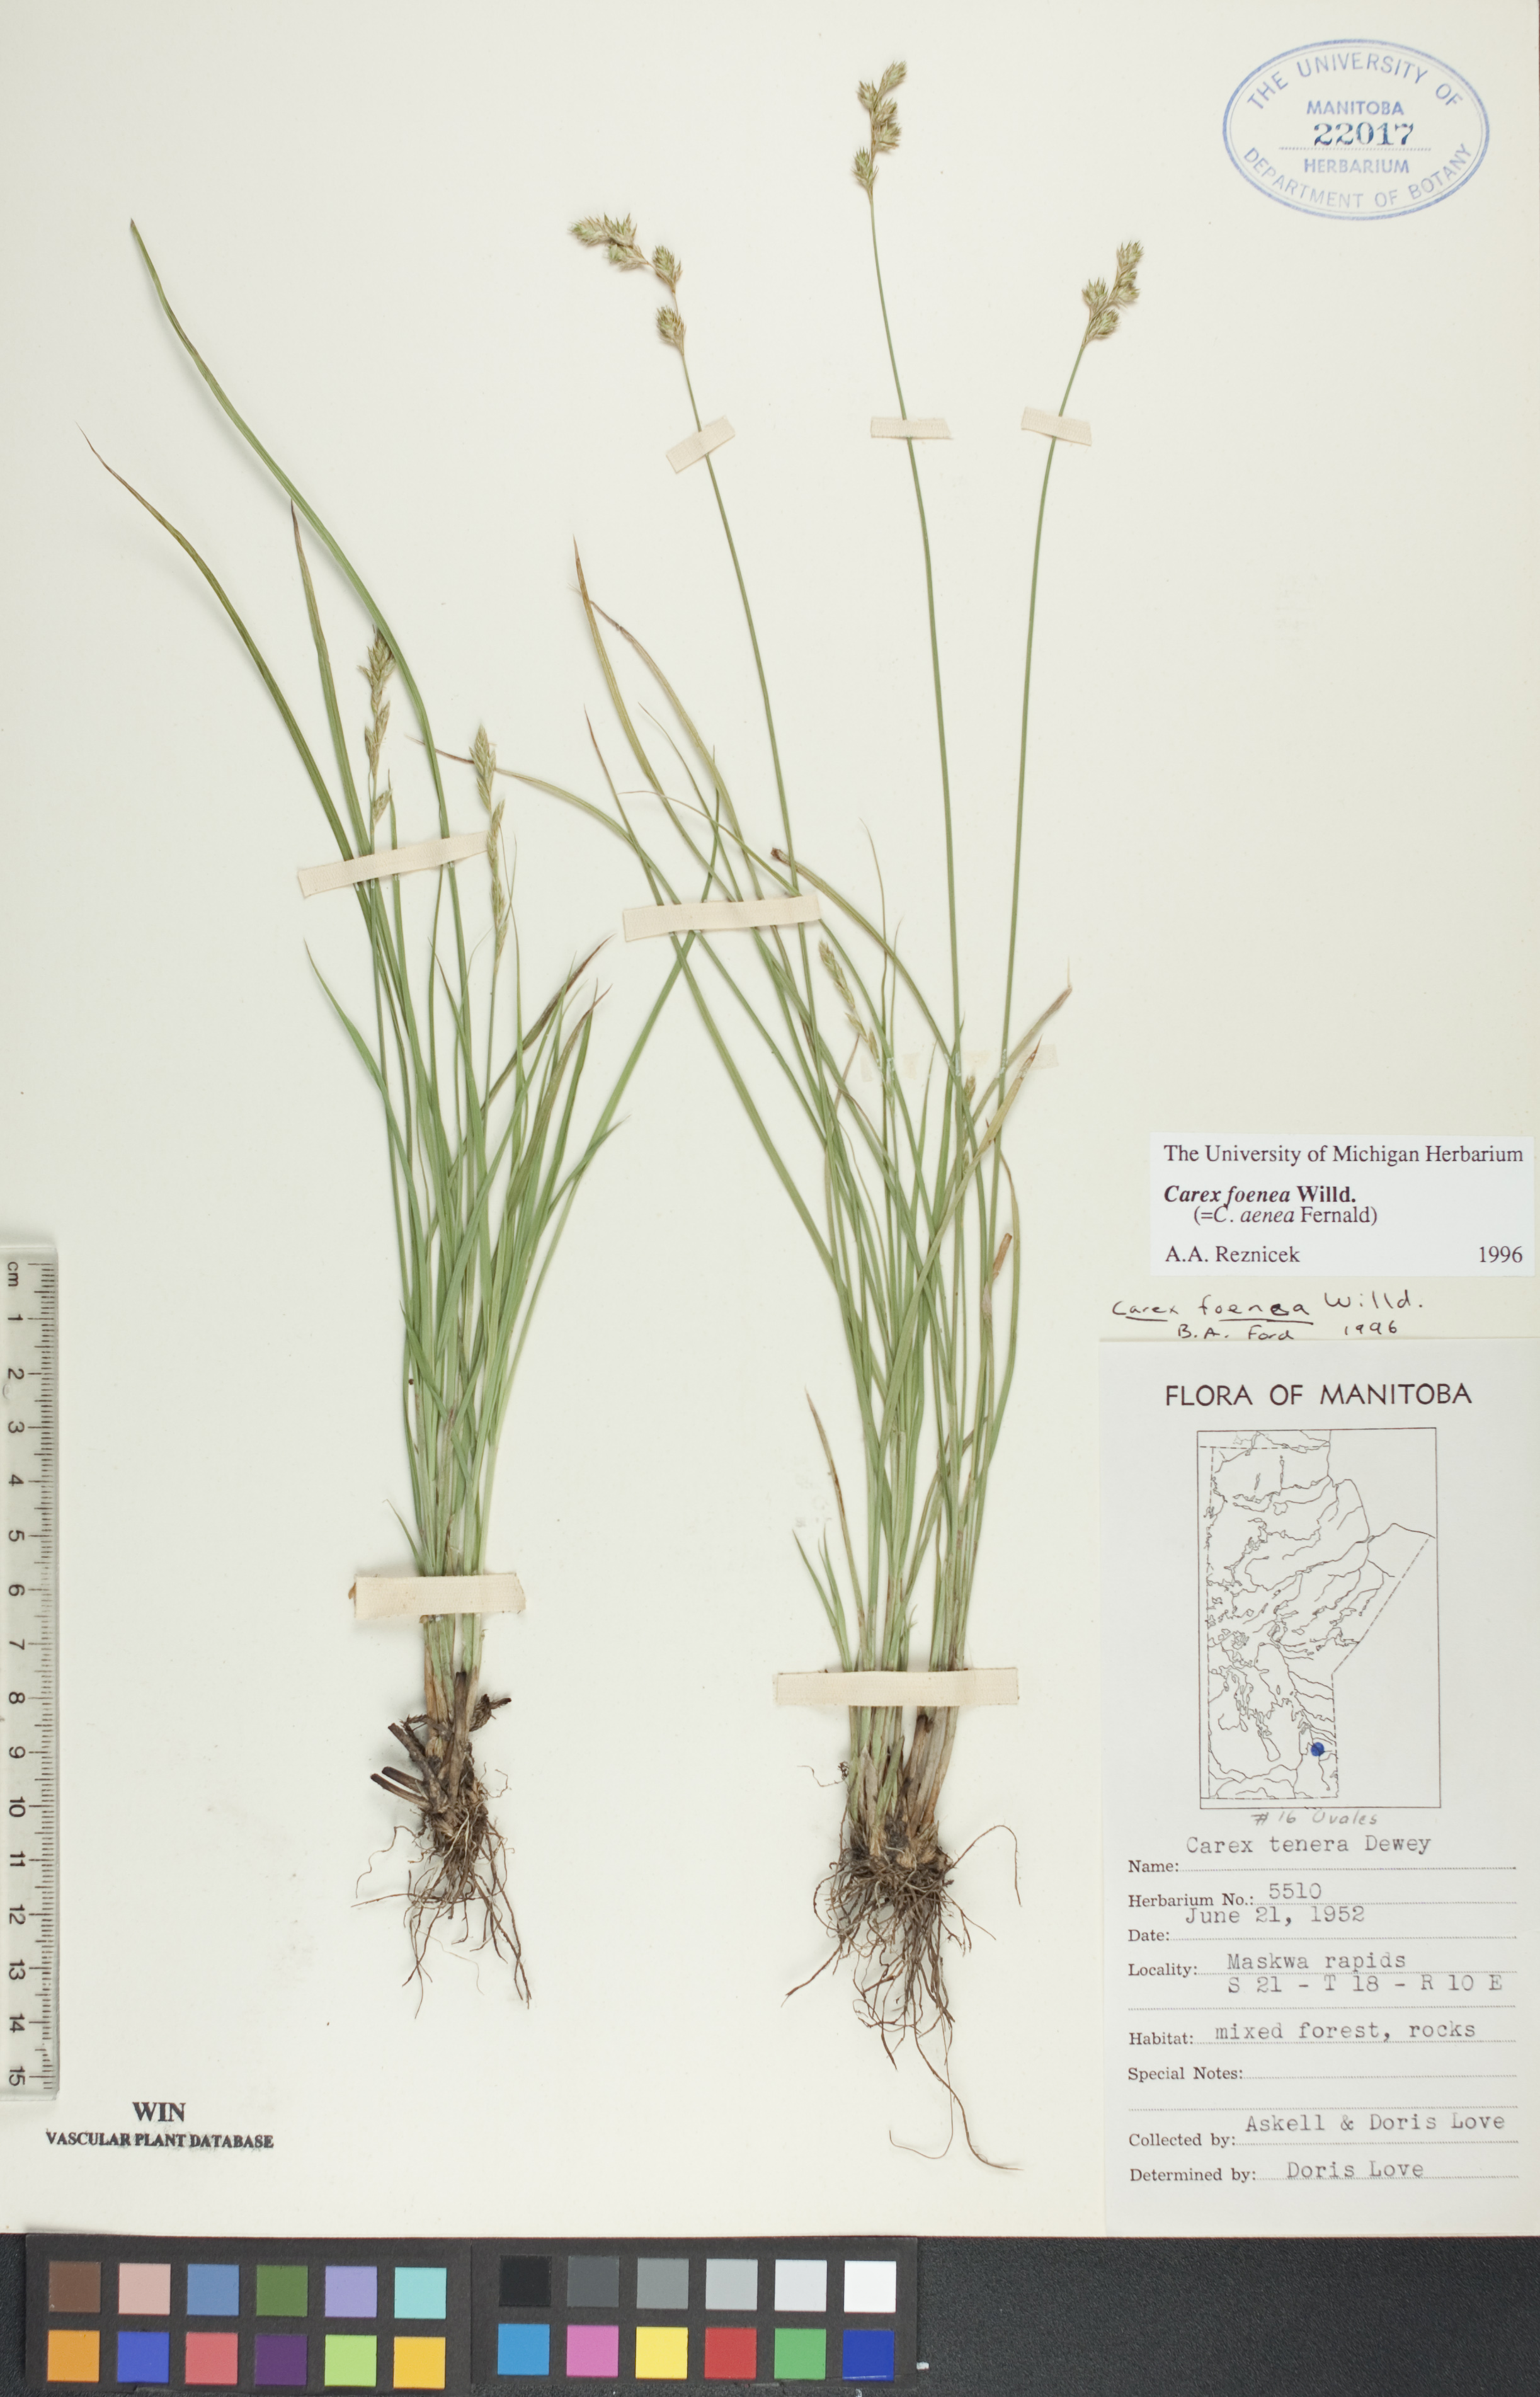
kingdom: Plantae
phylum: Tracheophyta
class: Liliopsida
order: Poales
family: Cyperaceae
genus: Carex
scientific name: Carex foenea
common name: Bronze sedge
